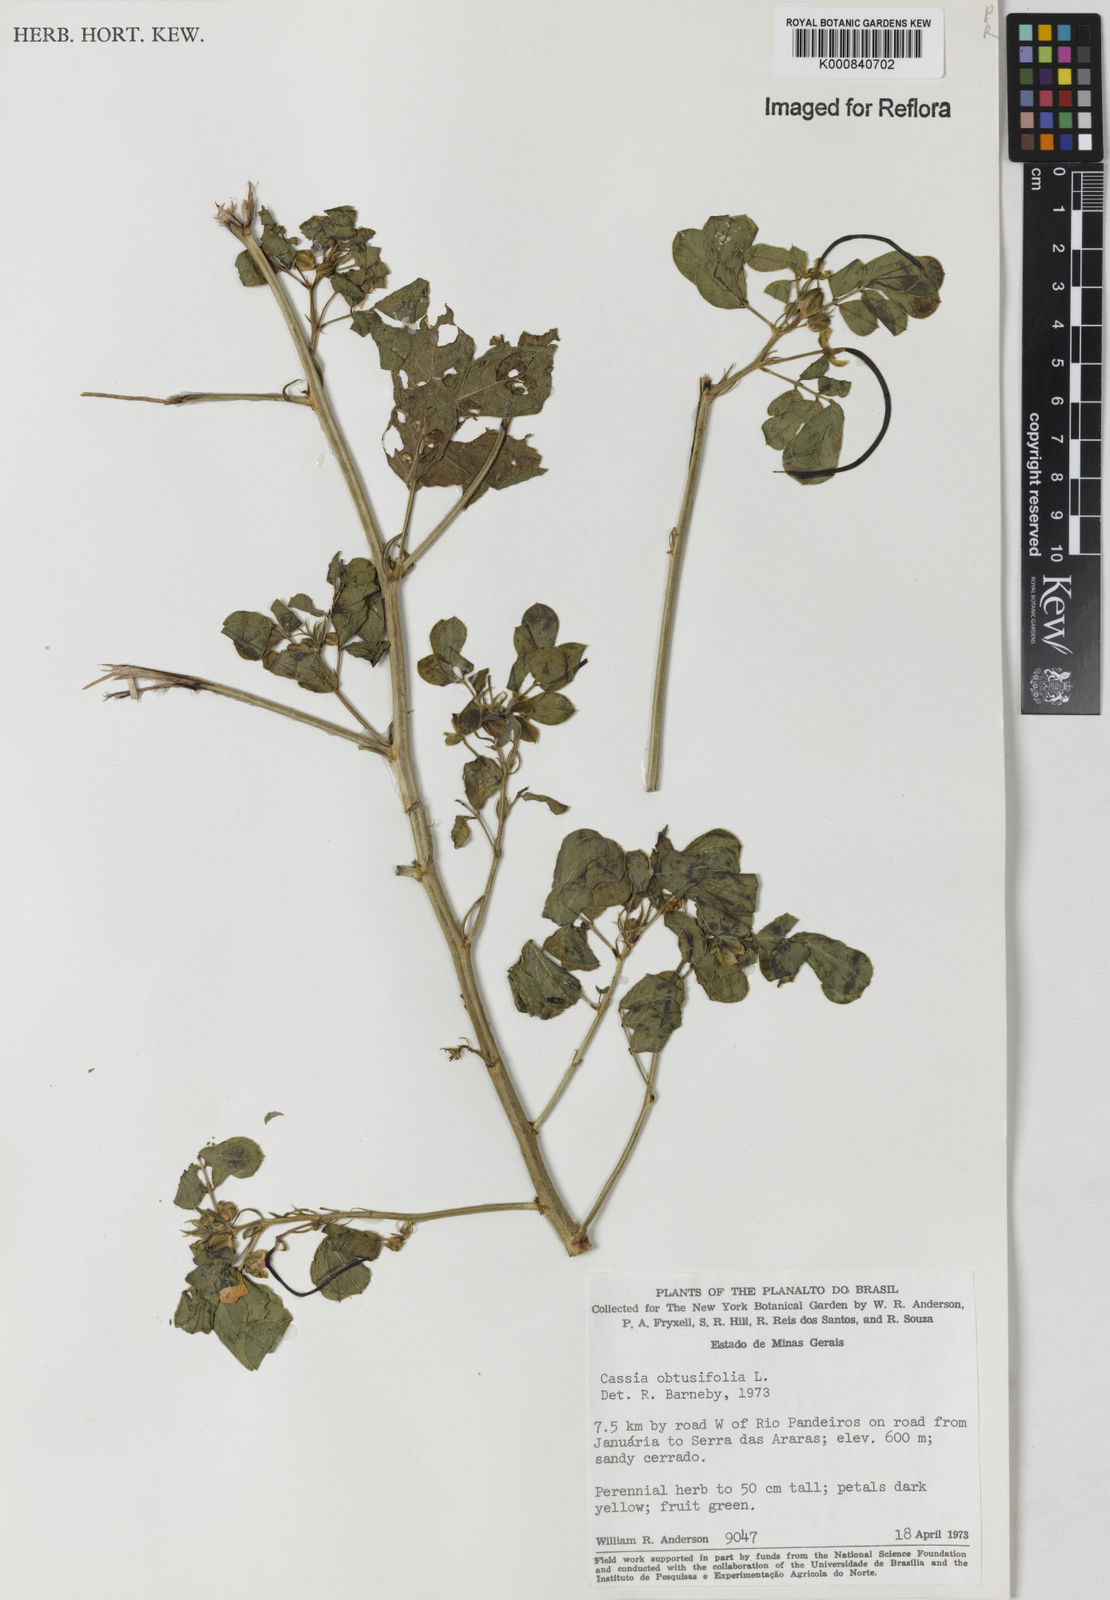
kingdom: Plantae
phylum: Tracheophyta
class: Magnoliopsida
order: Fabales
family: Fabaceae
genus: Senna
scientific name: Senna obtusifolia
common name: Java-bean
